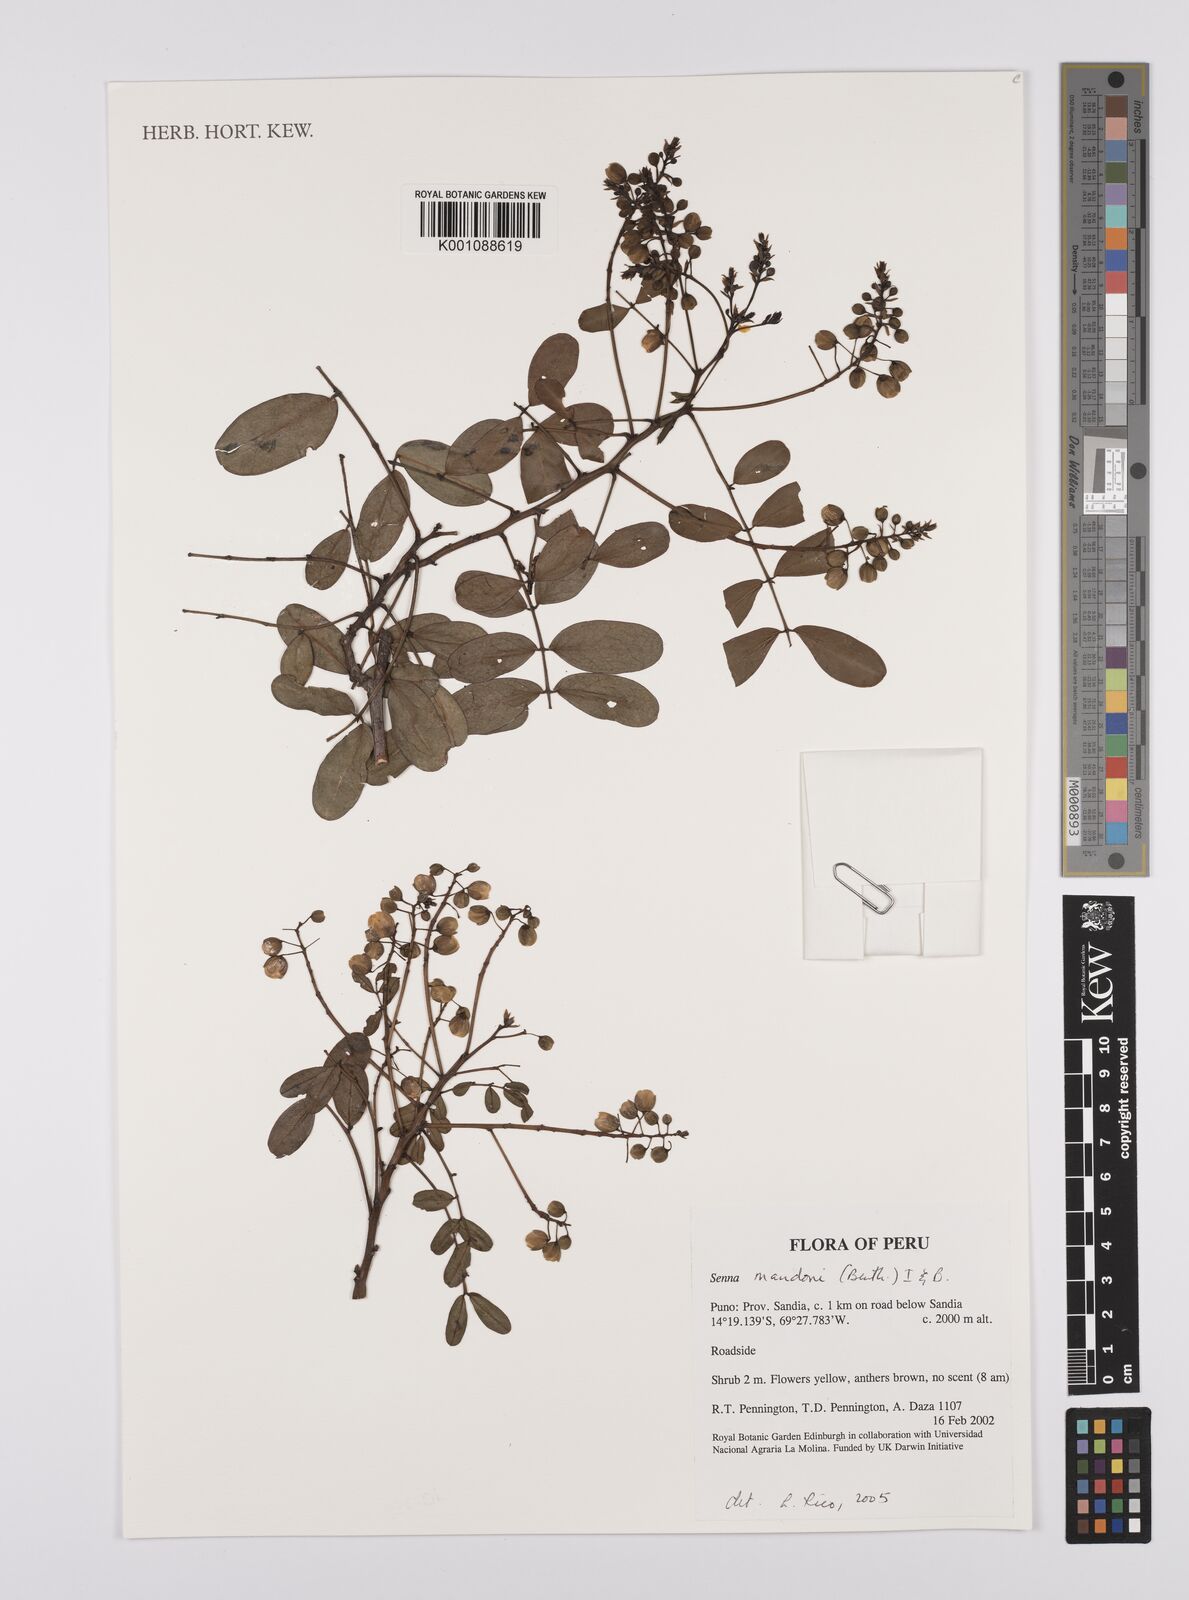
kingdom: Plantae
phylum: Tracheophyta
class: Magnoliopsida
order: Fabales
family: Fabaceae
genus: Senna
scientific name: Senna mandonii
